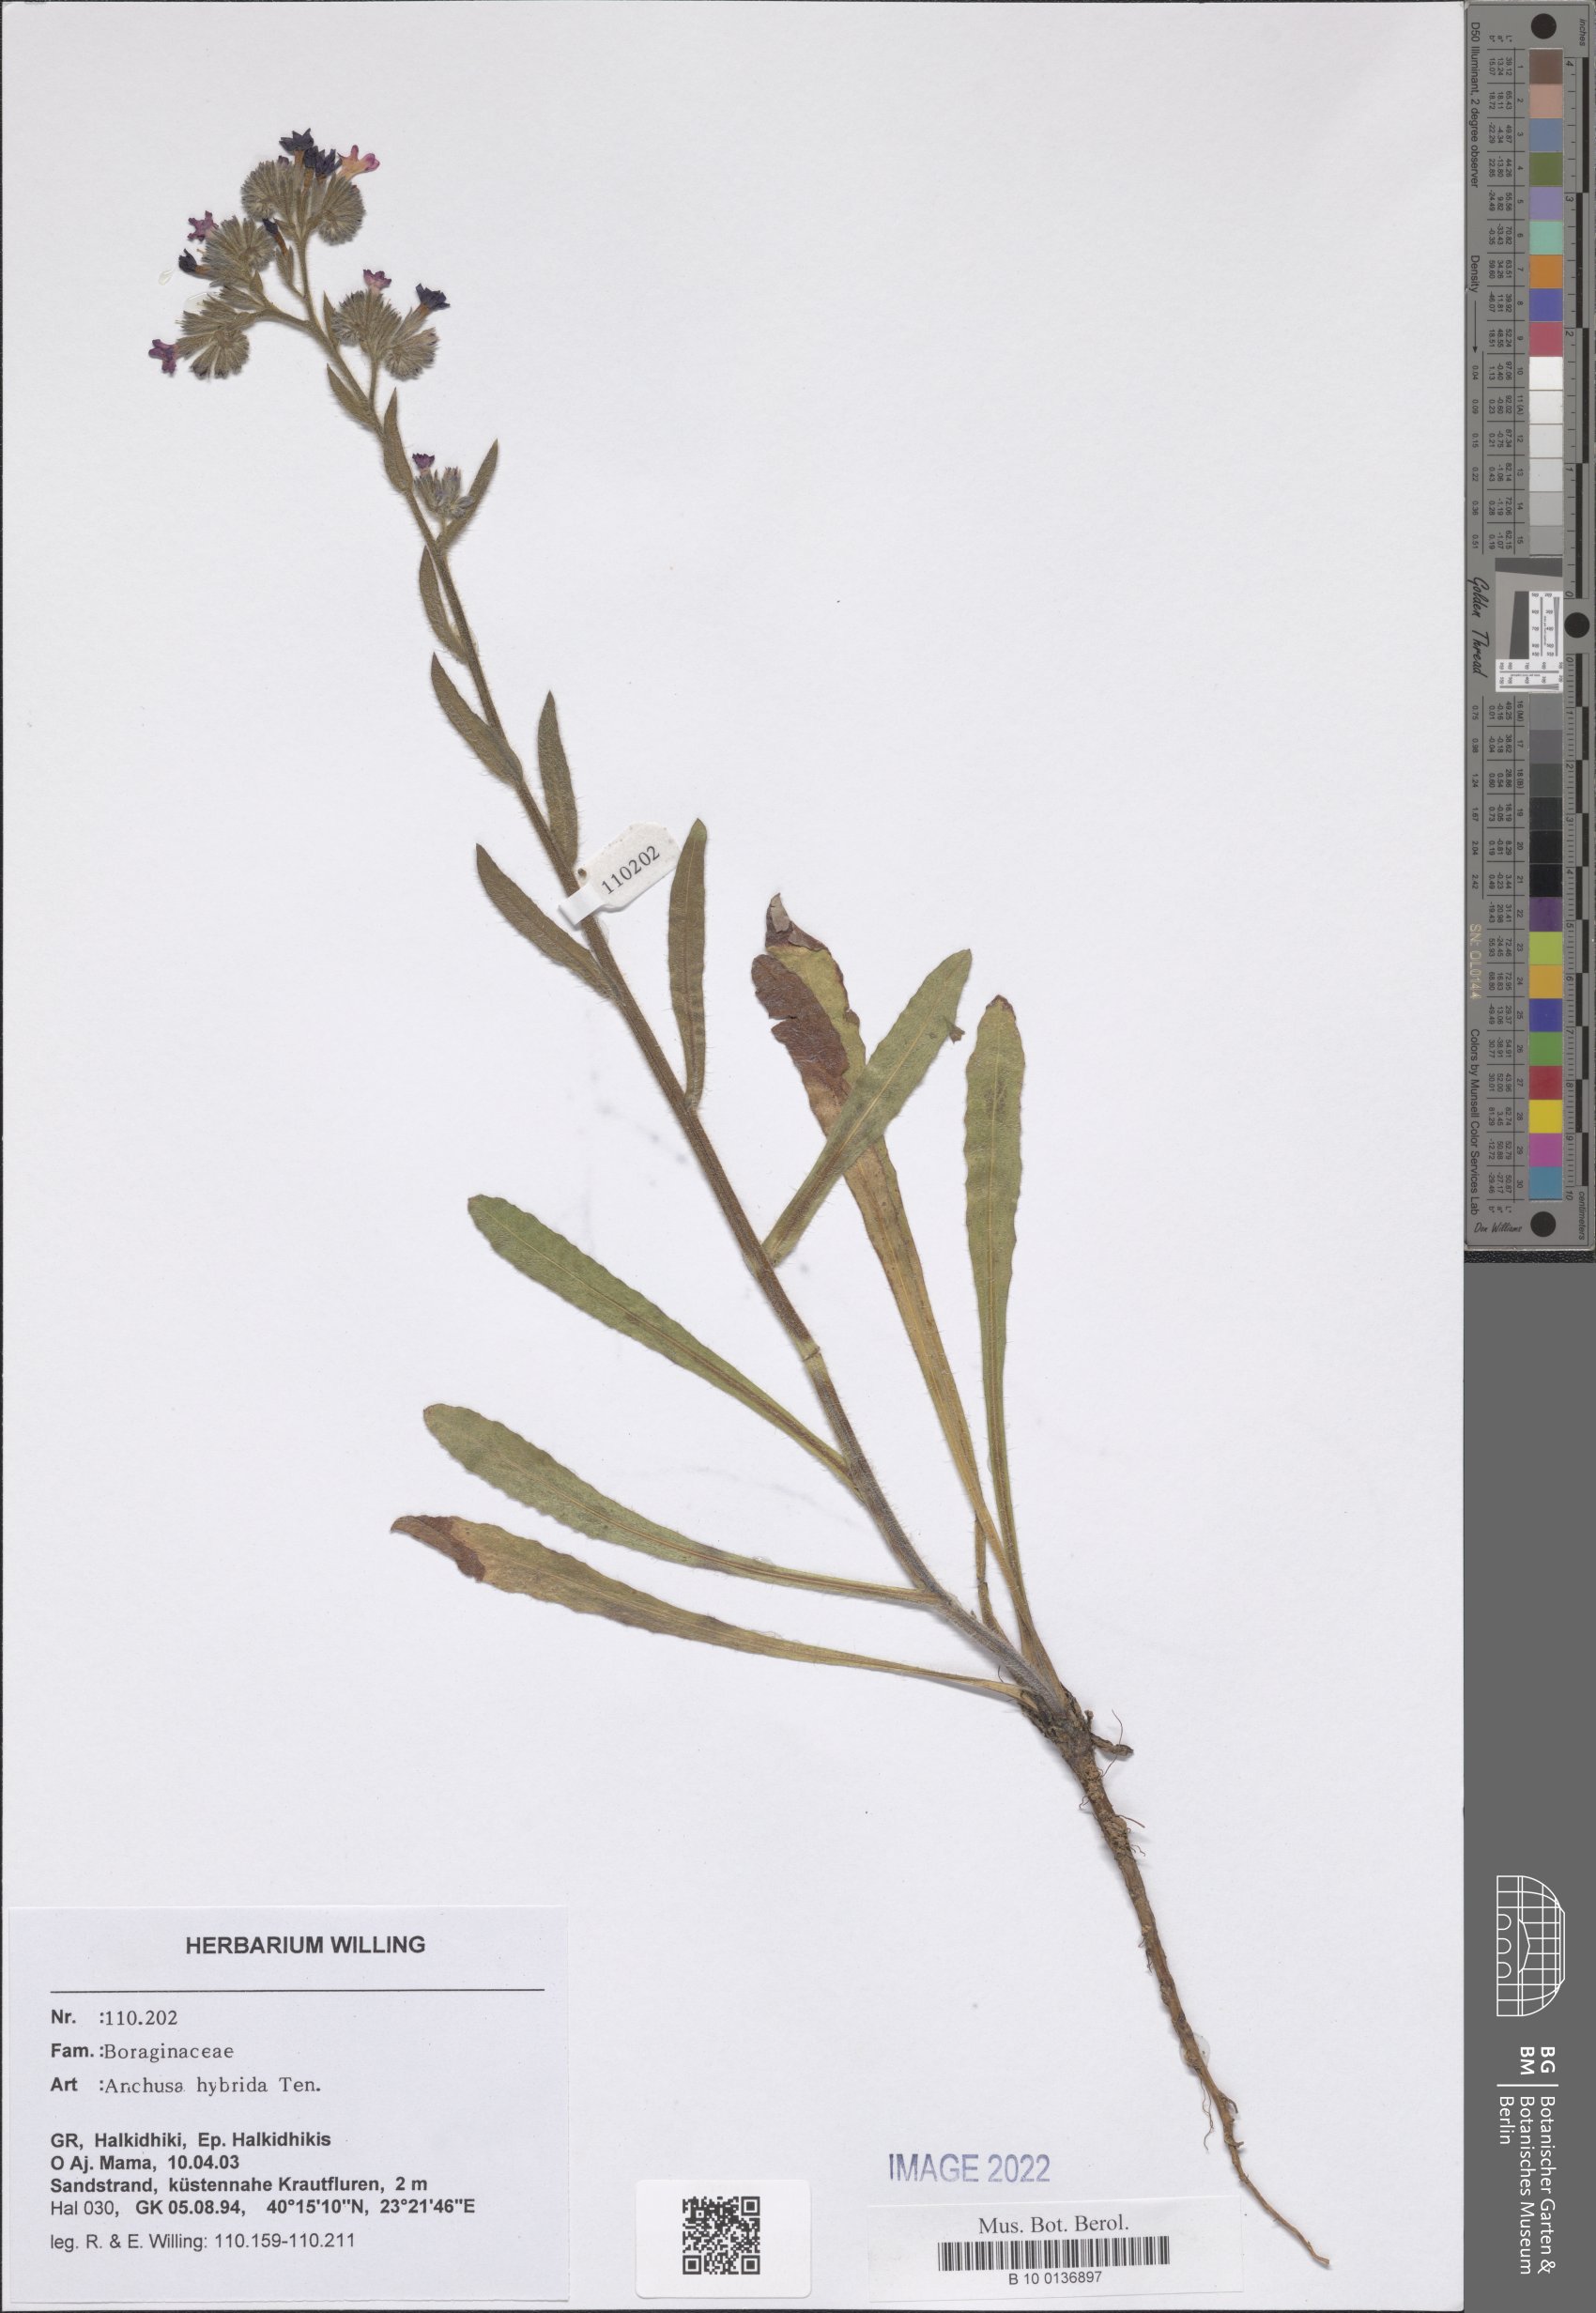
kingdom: Plantae
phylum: Tracheophyta
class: Magnoliopsida
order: Boraginales
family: Boraginaceae
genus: Anchusa
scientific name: Anchusa hybrida
